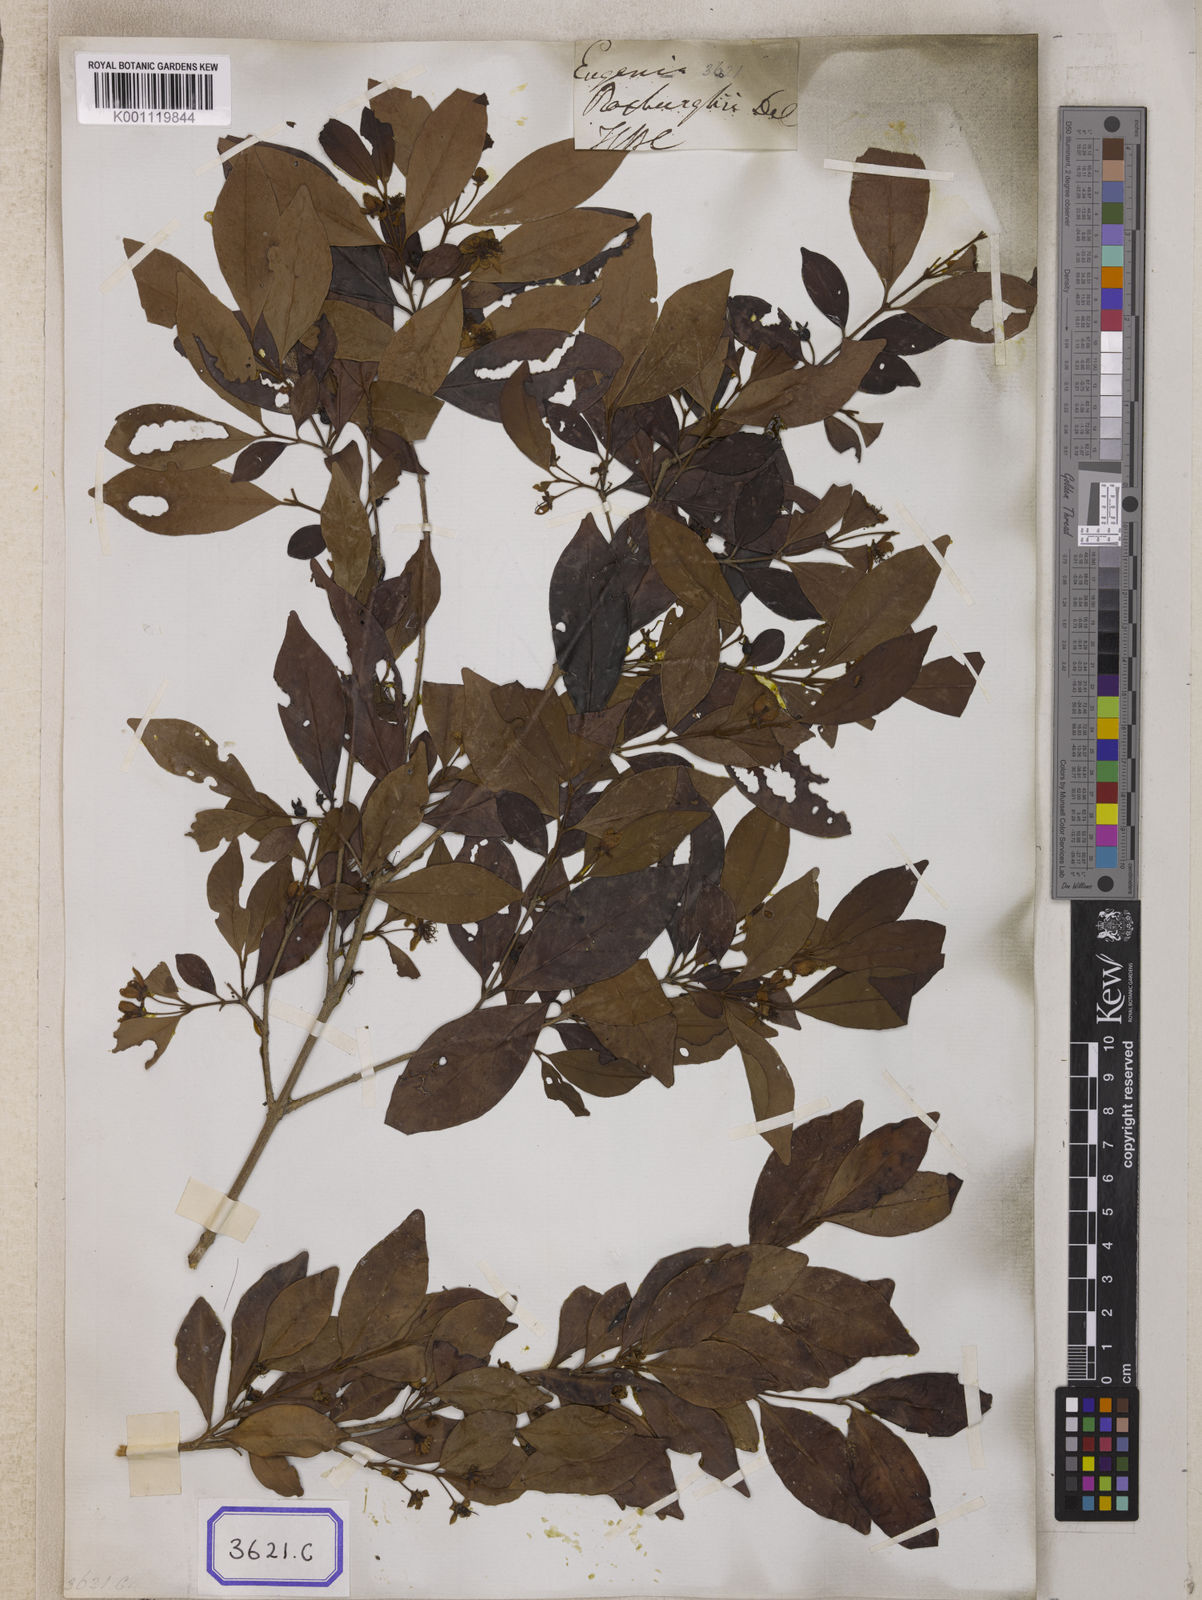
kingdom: Plantae
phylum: Tracheophyta
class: Magnoliopsida
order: Myrtales
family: Myrtaceae
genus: Eugenia
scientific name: Eugenia roxburghii
